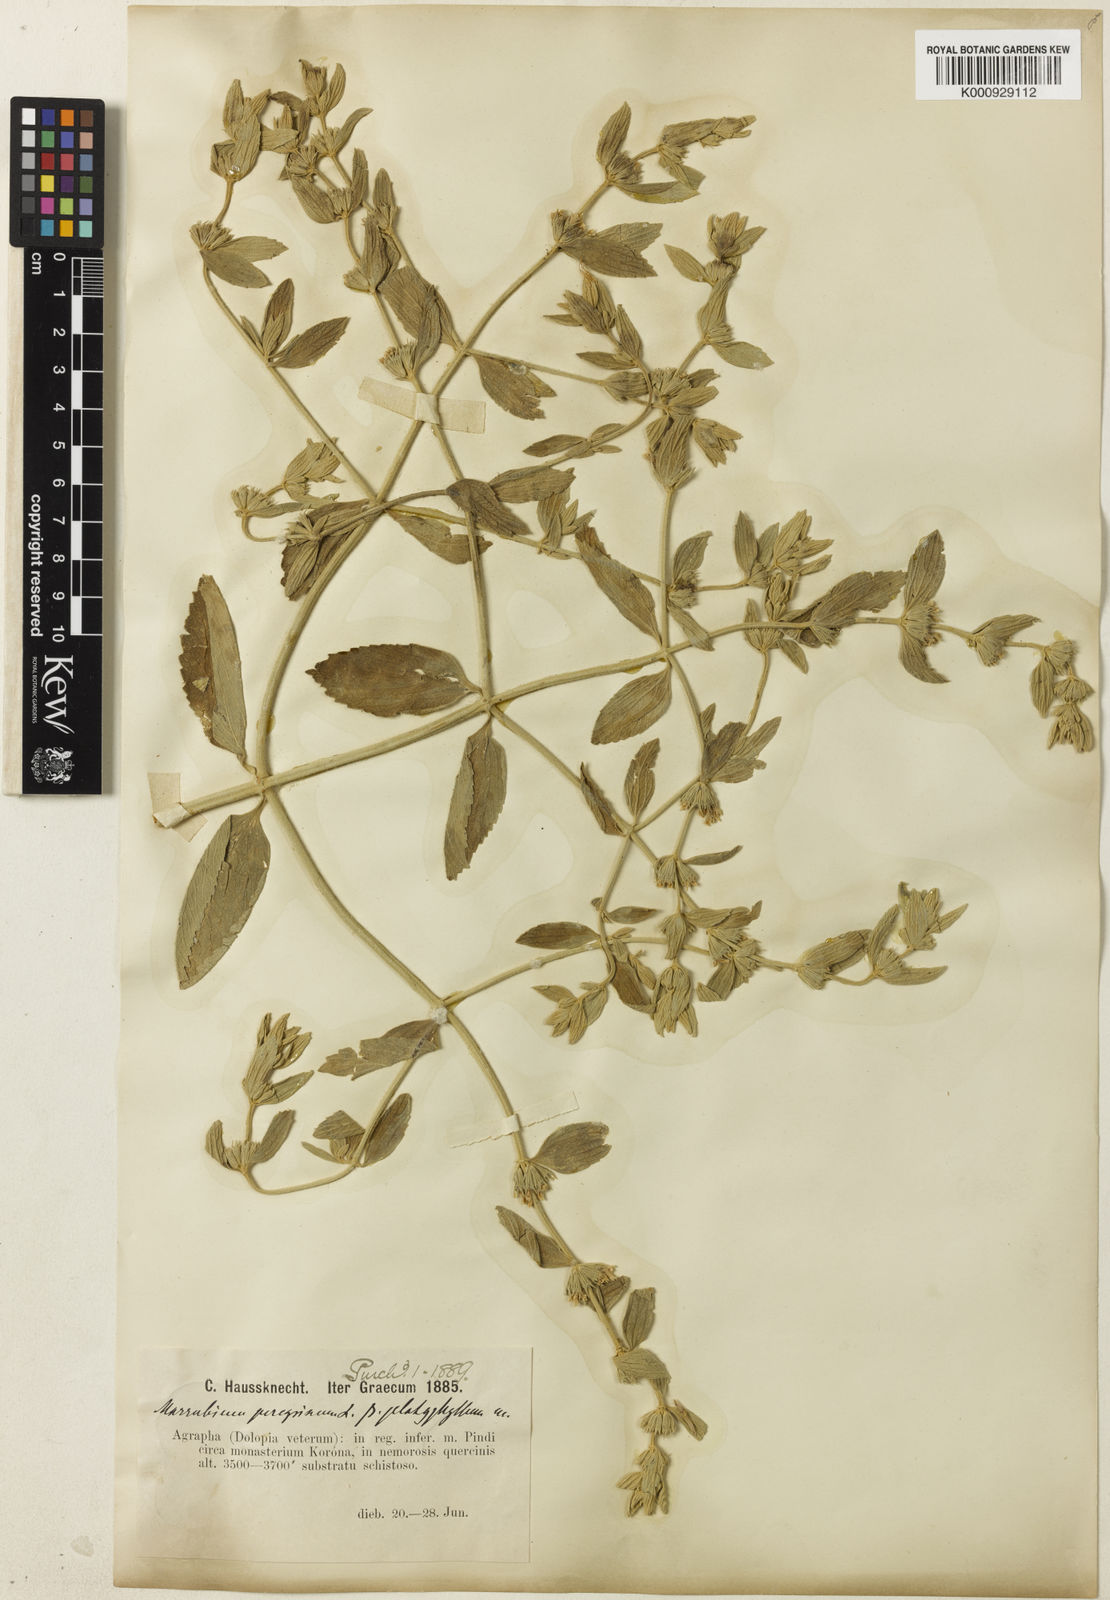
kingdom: Plantae
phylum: Tracheophyta
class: Magnoliopsida
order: Lamiales
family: Lamiaceae
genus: Marrubium
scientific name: Marrubium peregrinum
